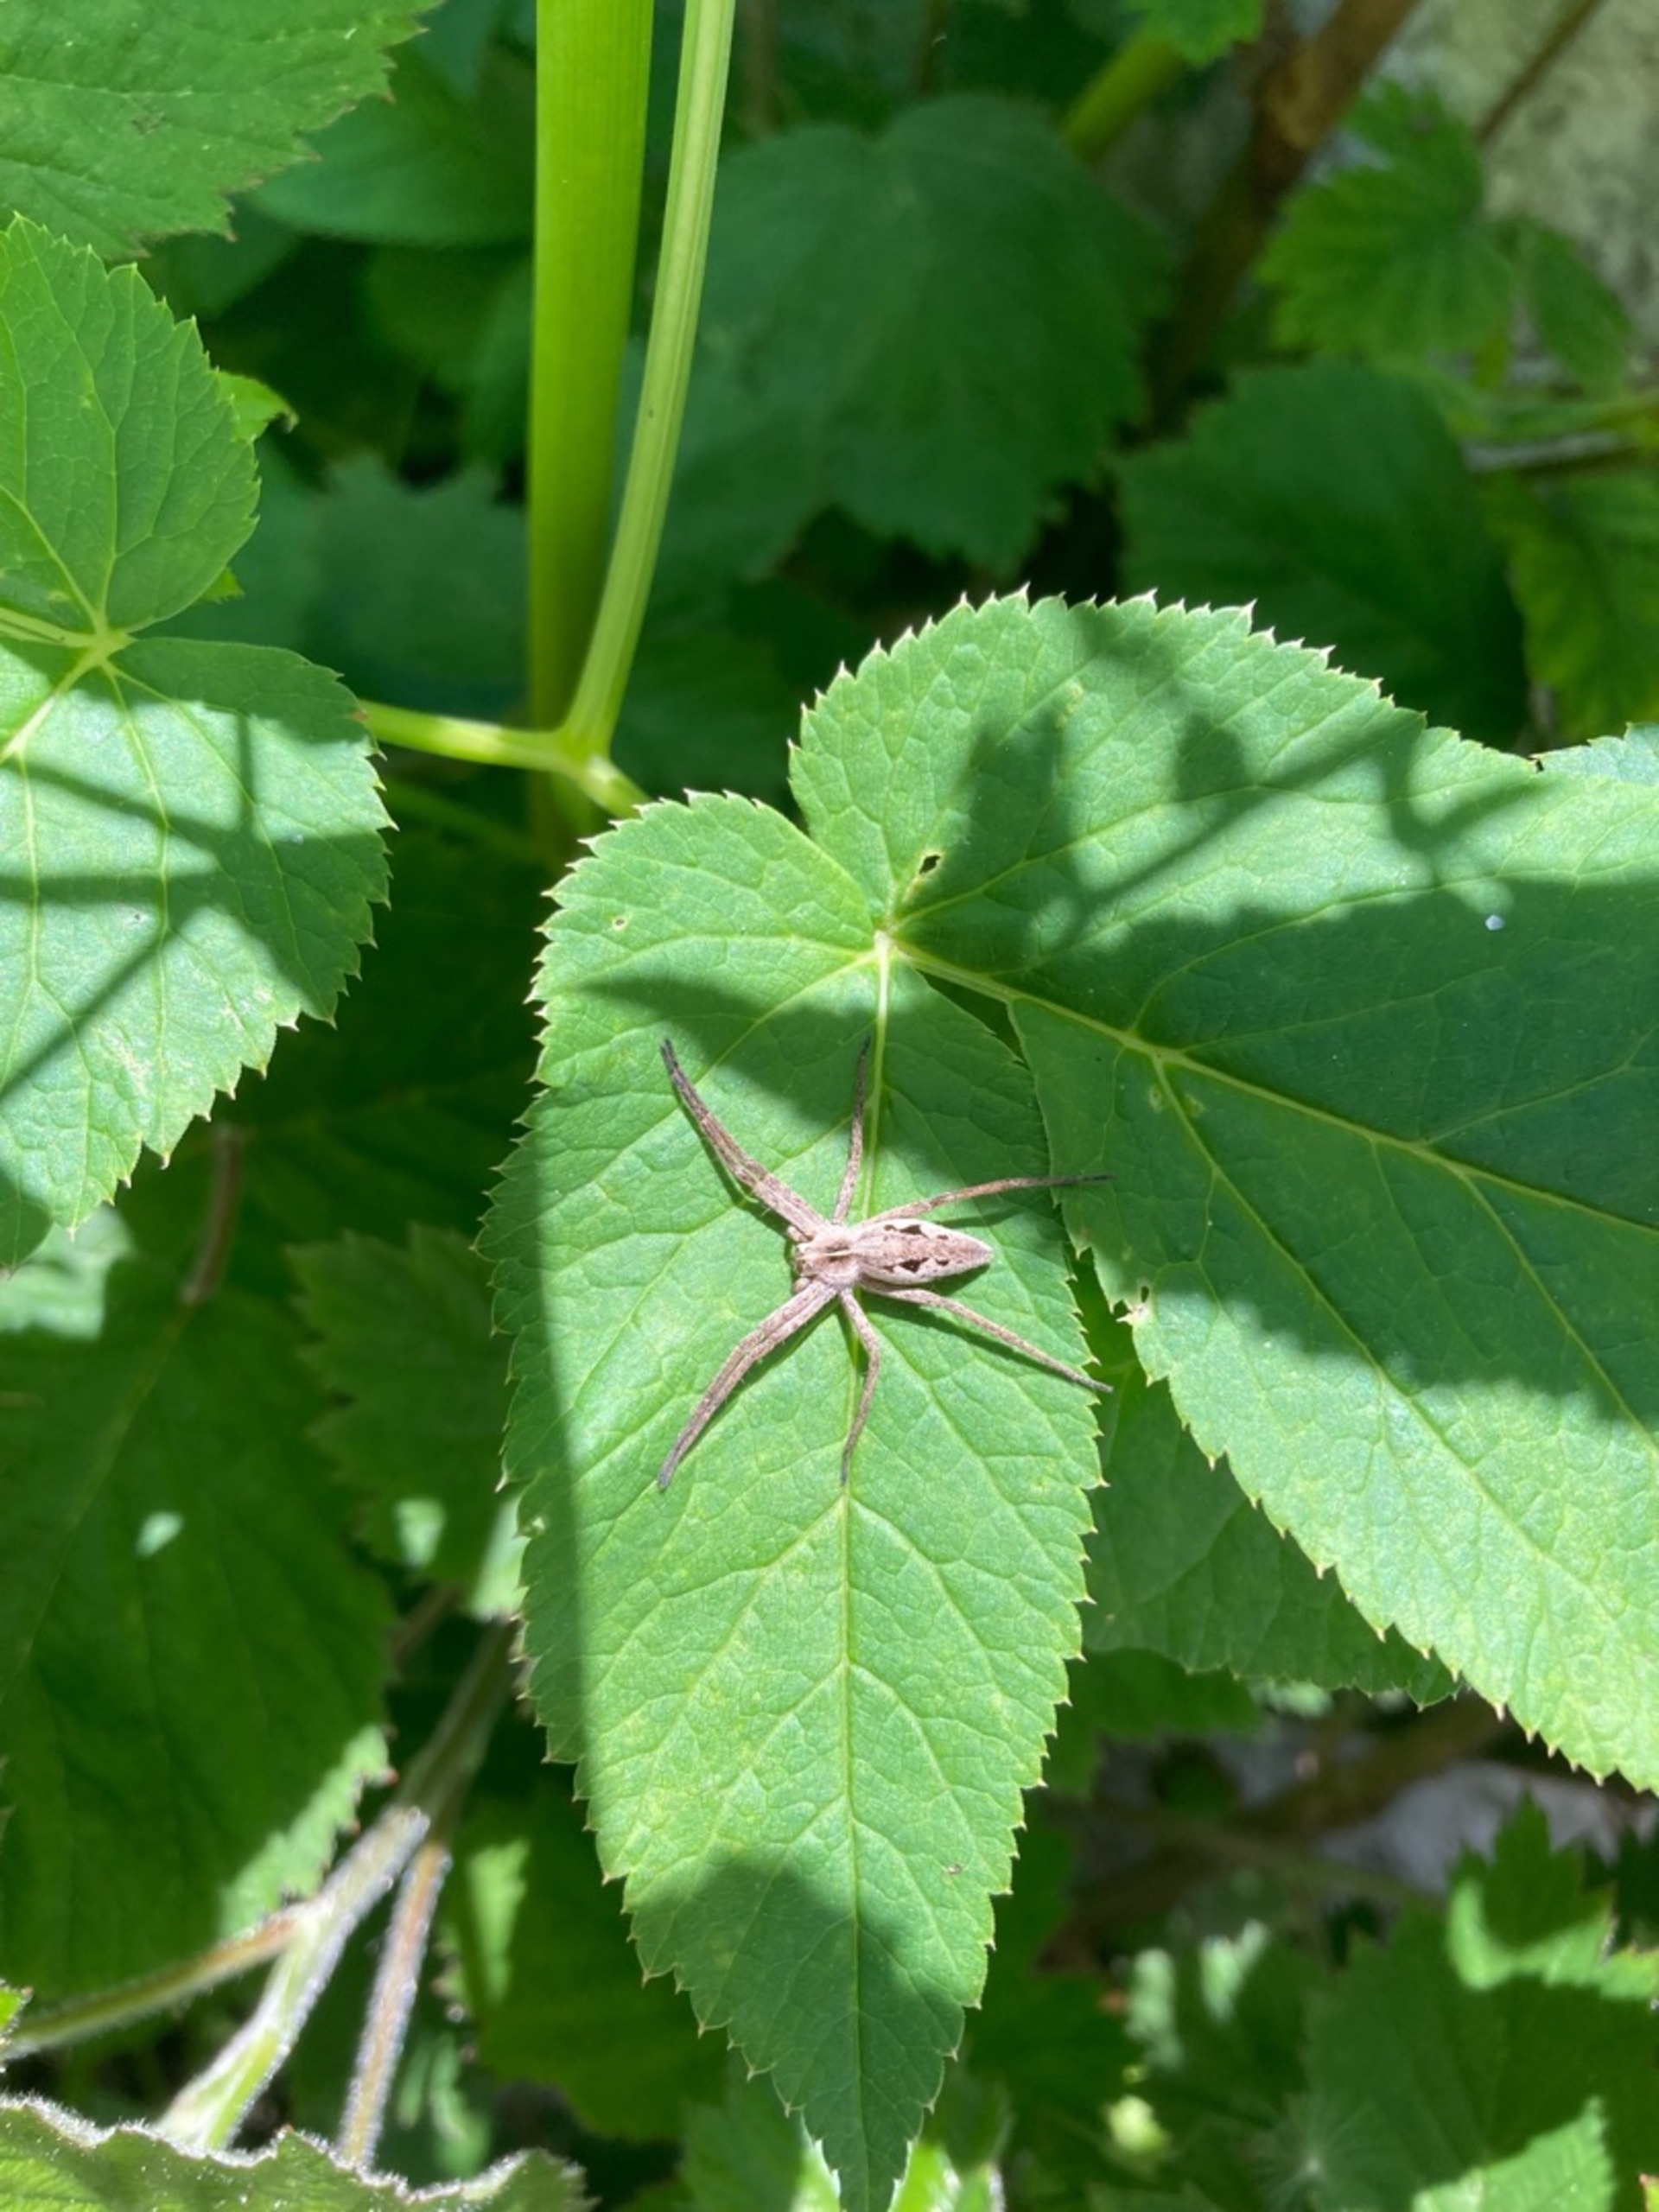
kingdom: Animalia
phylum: Arthropoda
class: Arachnida
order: Araneae
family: Pisauridae
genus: Pisaura
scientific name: Pisaura mirabilis
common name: Almindelig rovedderkop
